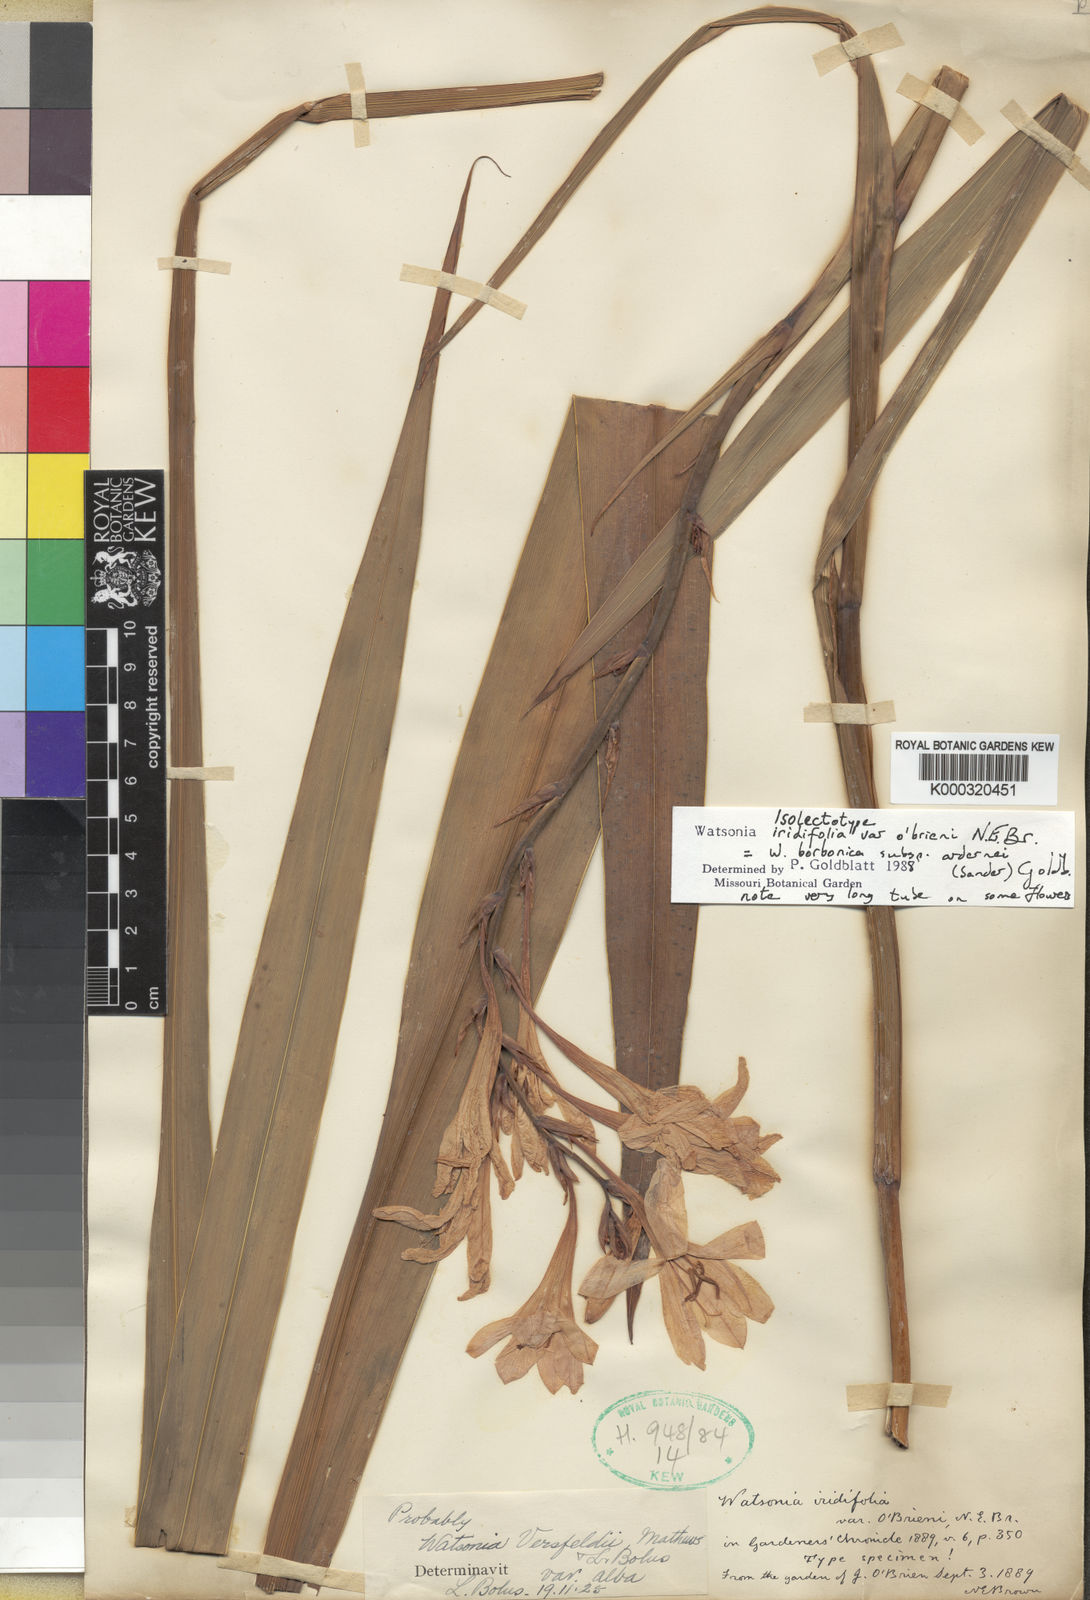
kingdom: Plantae
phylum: Tracheophyta
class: Liliopsida
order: Asparagales
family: Iridaceae
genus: Watsonia
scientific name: Watsonia borbonica
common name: Bugle-lily
